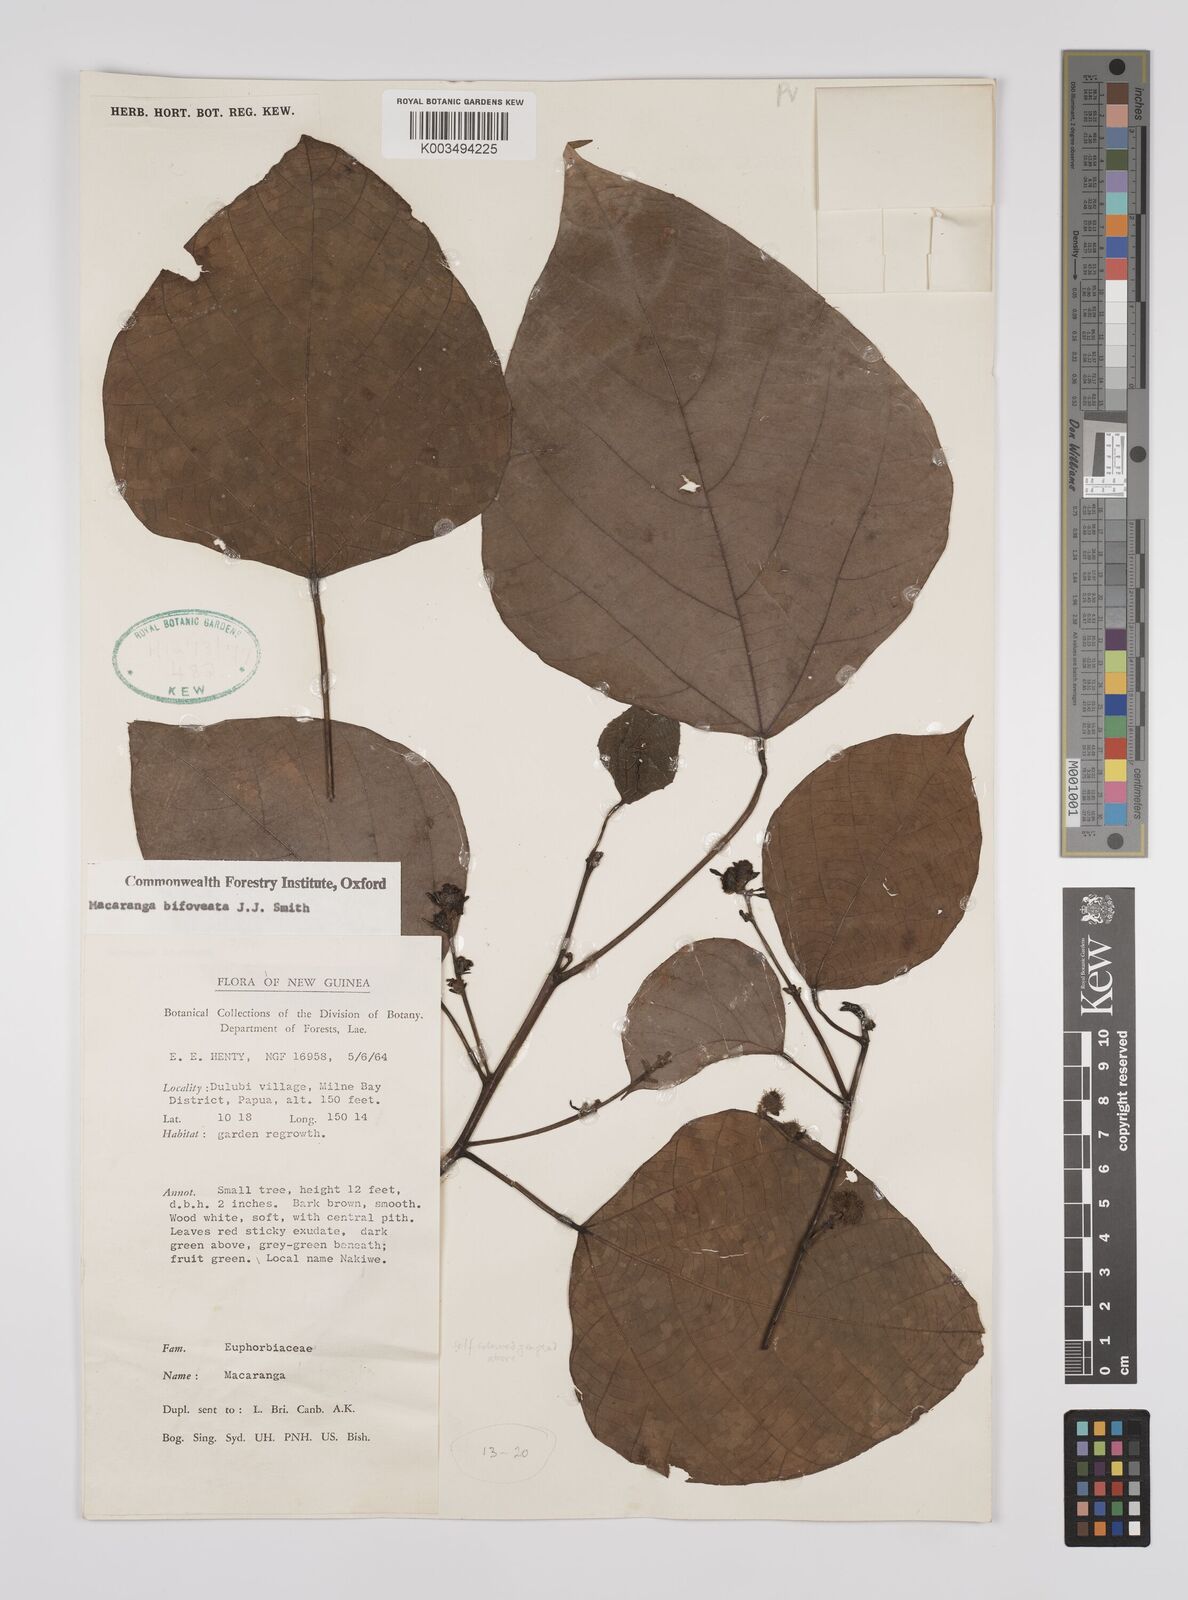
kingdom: Plantae
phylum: Tracheophyta
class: Magnoliopsida
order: Malpighiales
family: Euphorbiaceae
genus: Macaranga
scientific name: Macaranga bifoveata
